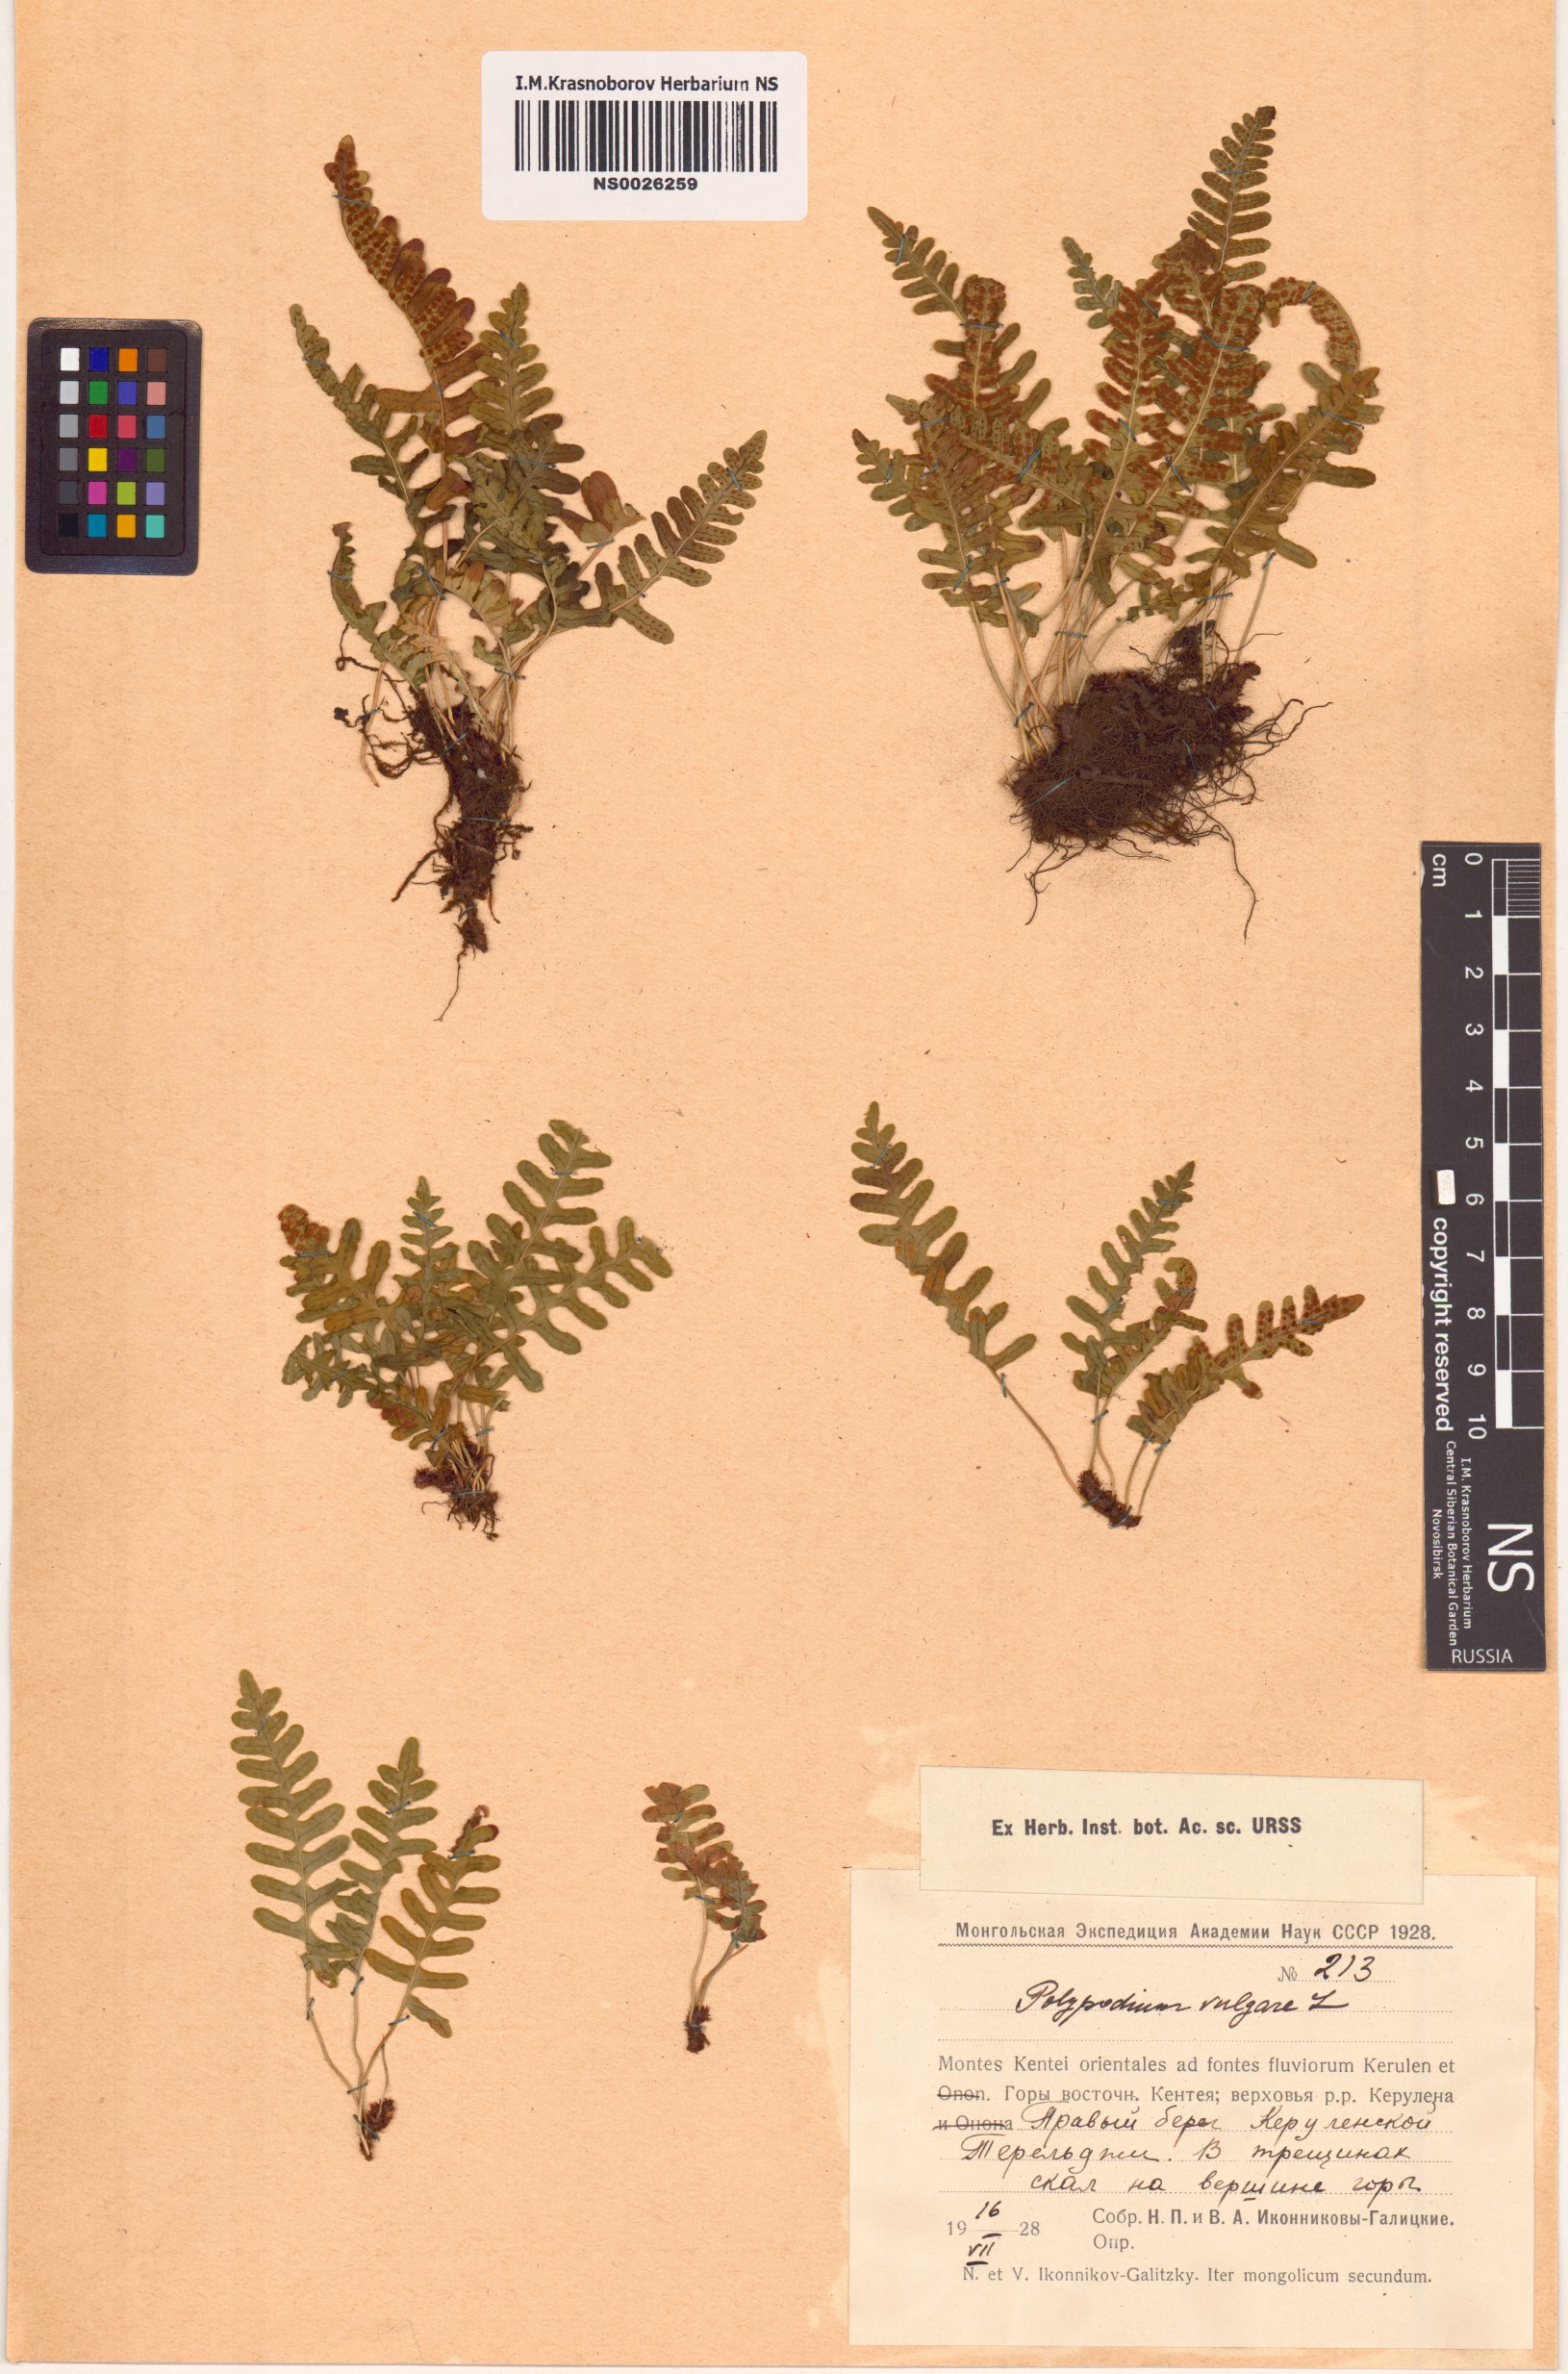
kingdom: Plantae
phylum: Tracheophyta
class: Polypodiopsida
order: Polypodiales
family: Polypodiaceae
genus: Polypodium
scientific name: Polypodium vulgare
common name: Common polypody
